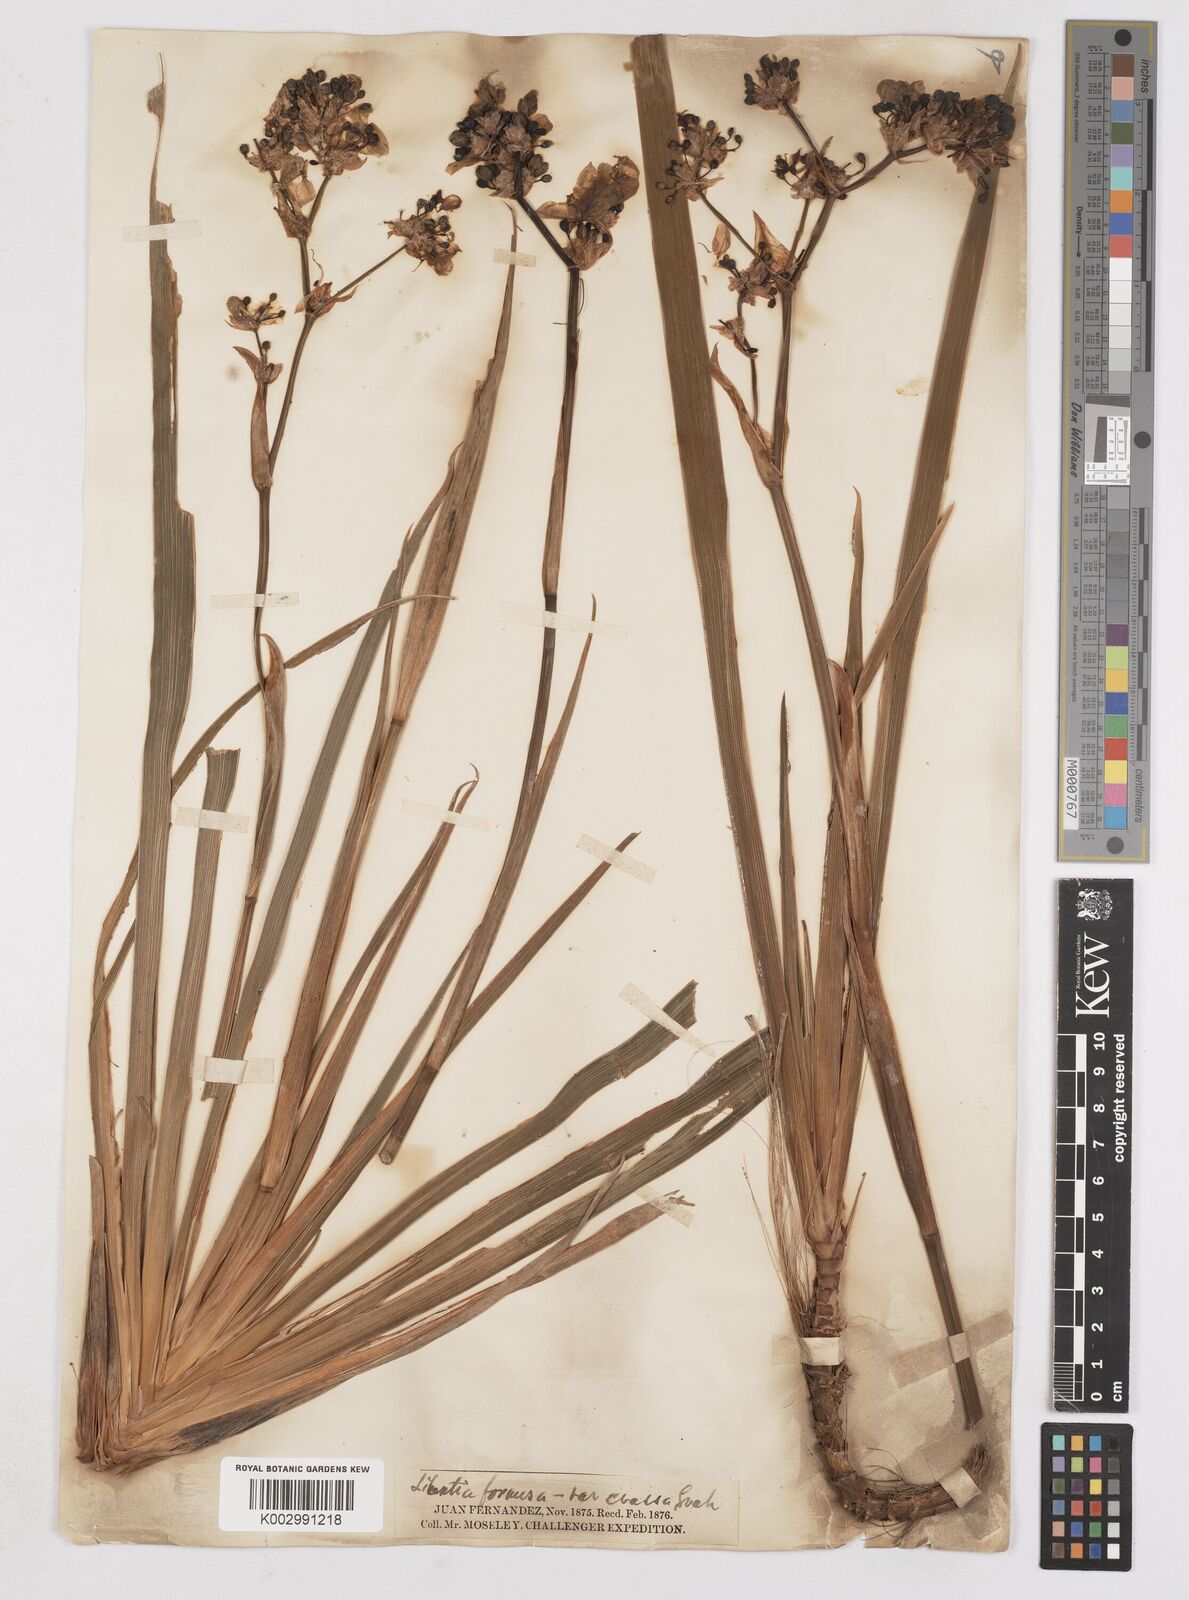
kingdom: Plantae
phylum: Tracheophyta
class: Liliopsida
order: Asparagales
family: Iridaceae
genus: Libertia
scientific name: Libertia chilensis
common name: Satin flower
